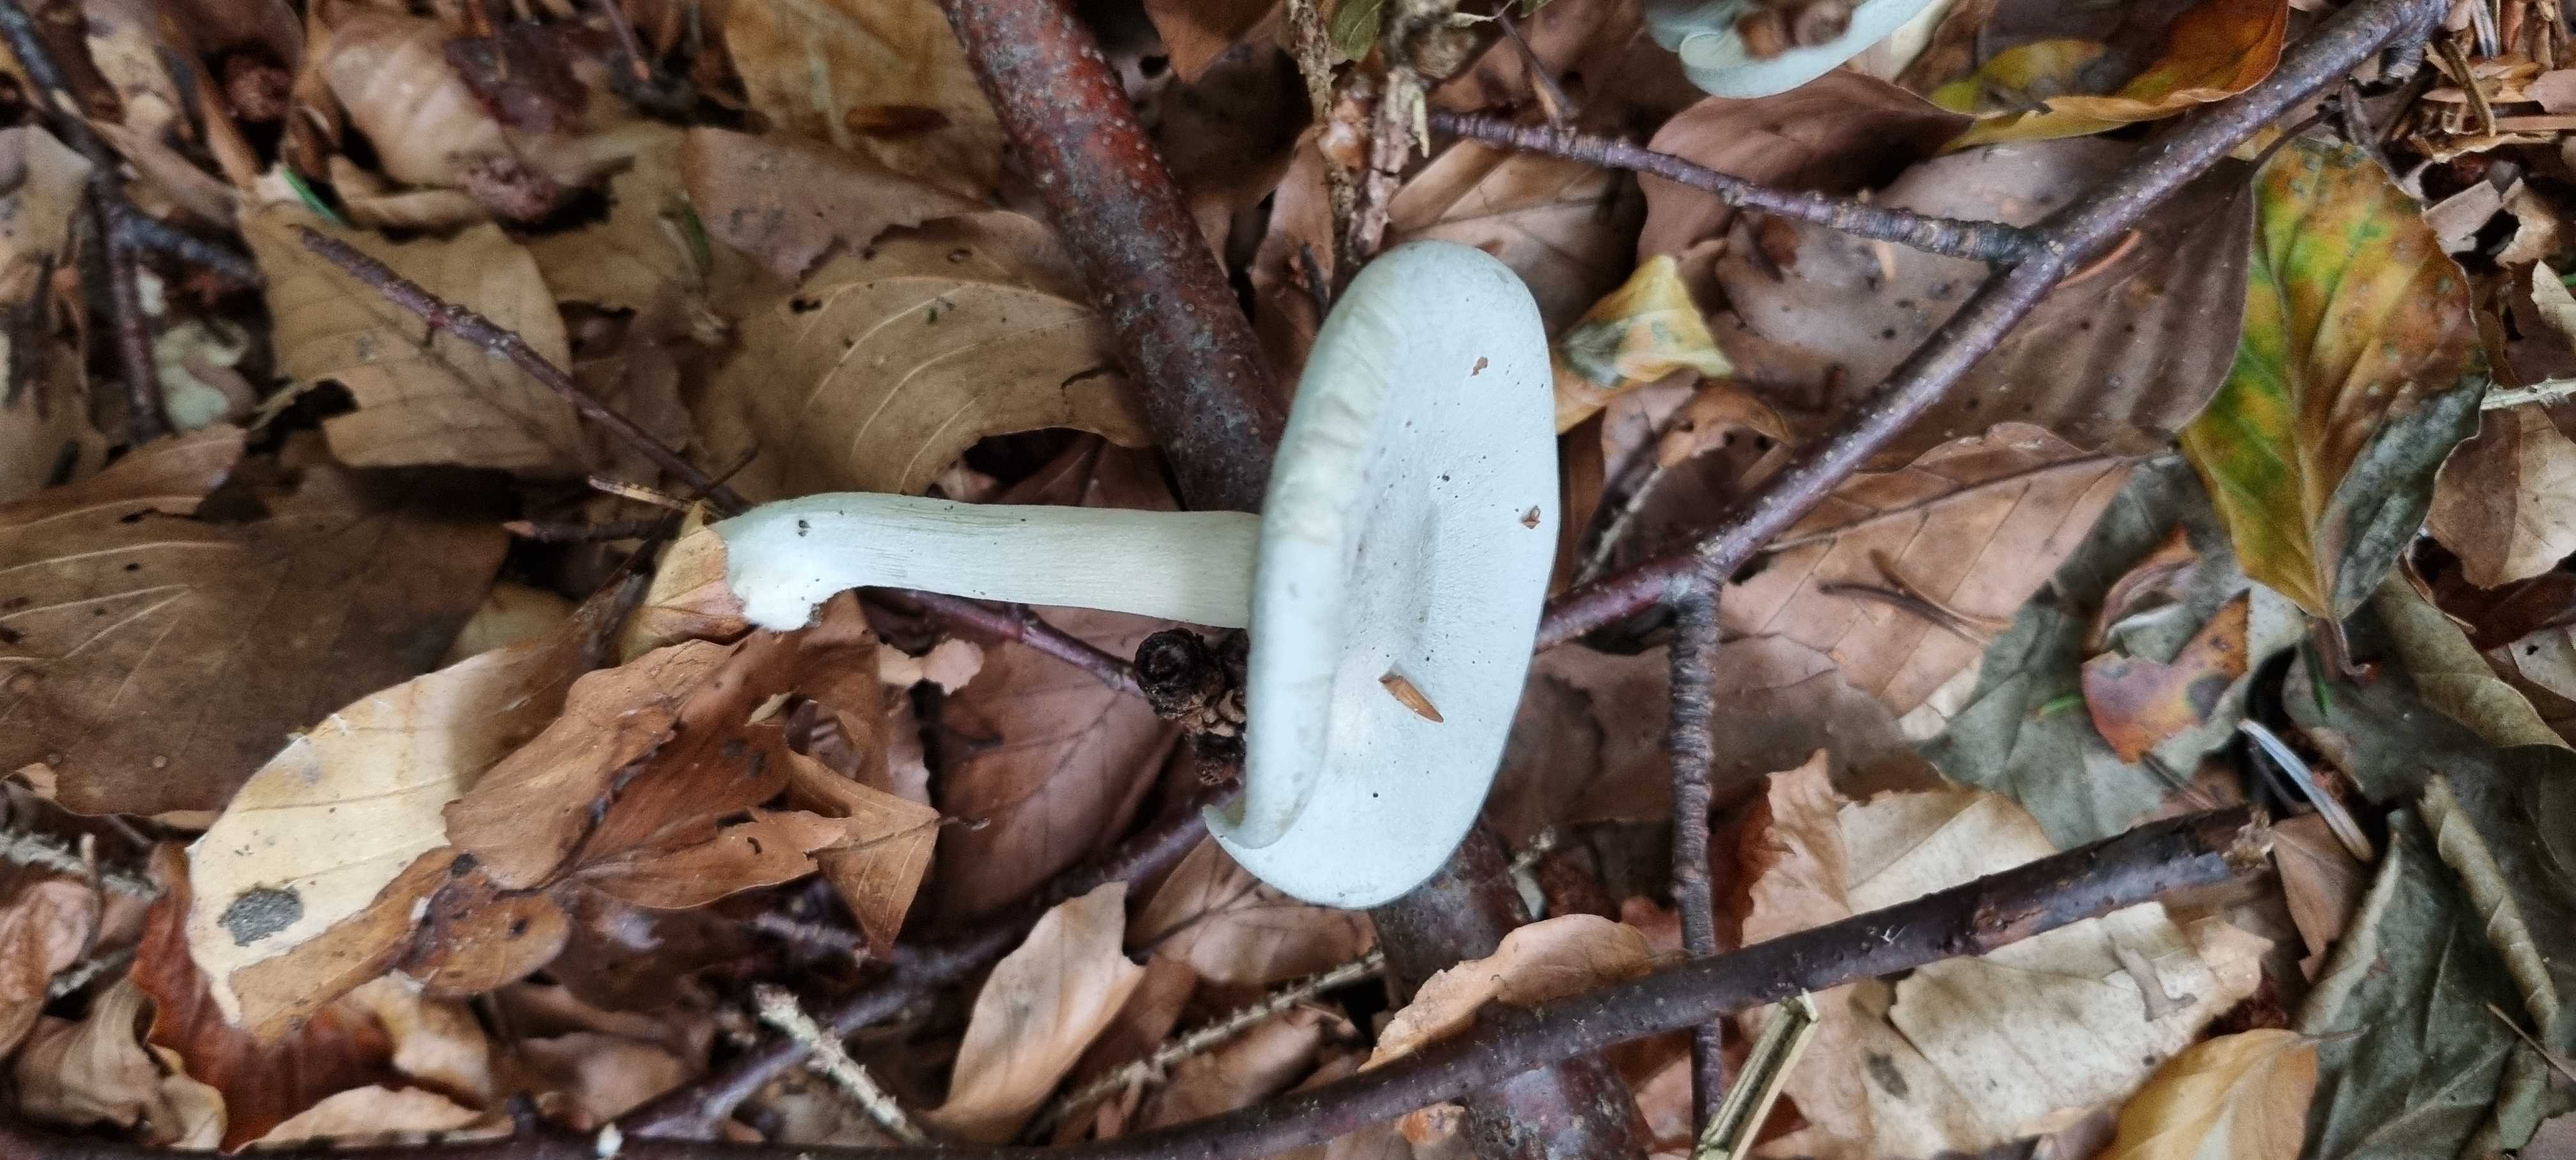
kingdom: Fungi
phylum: Basidiomycota
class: Agaricomycetes
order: Agaricales
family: Tricholomataceae
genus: Clitocybe
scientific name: Clitocybe odora
